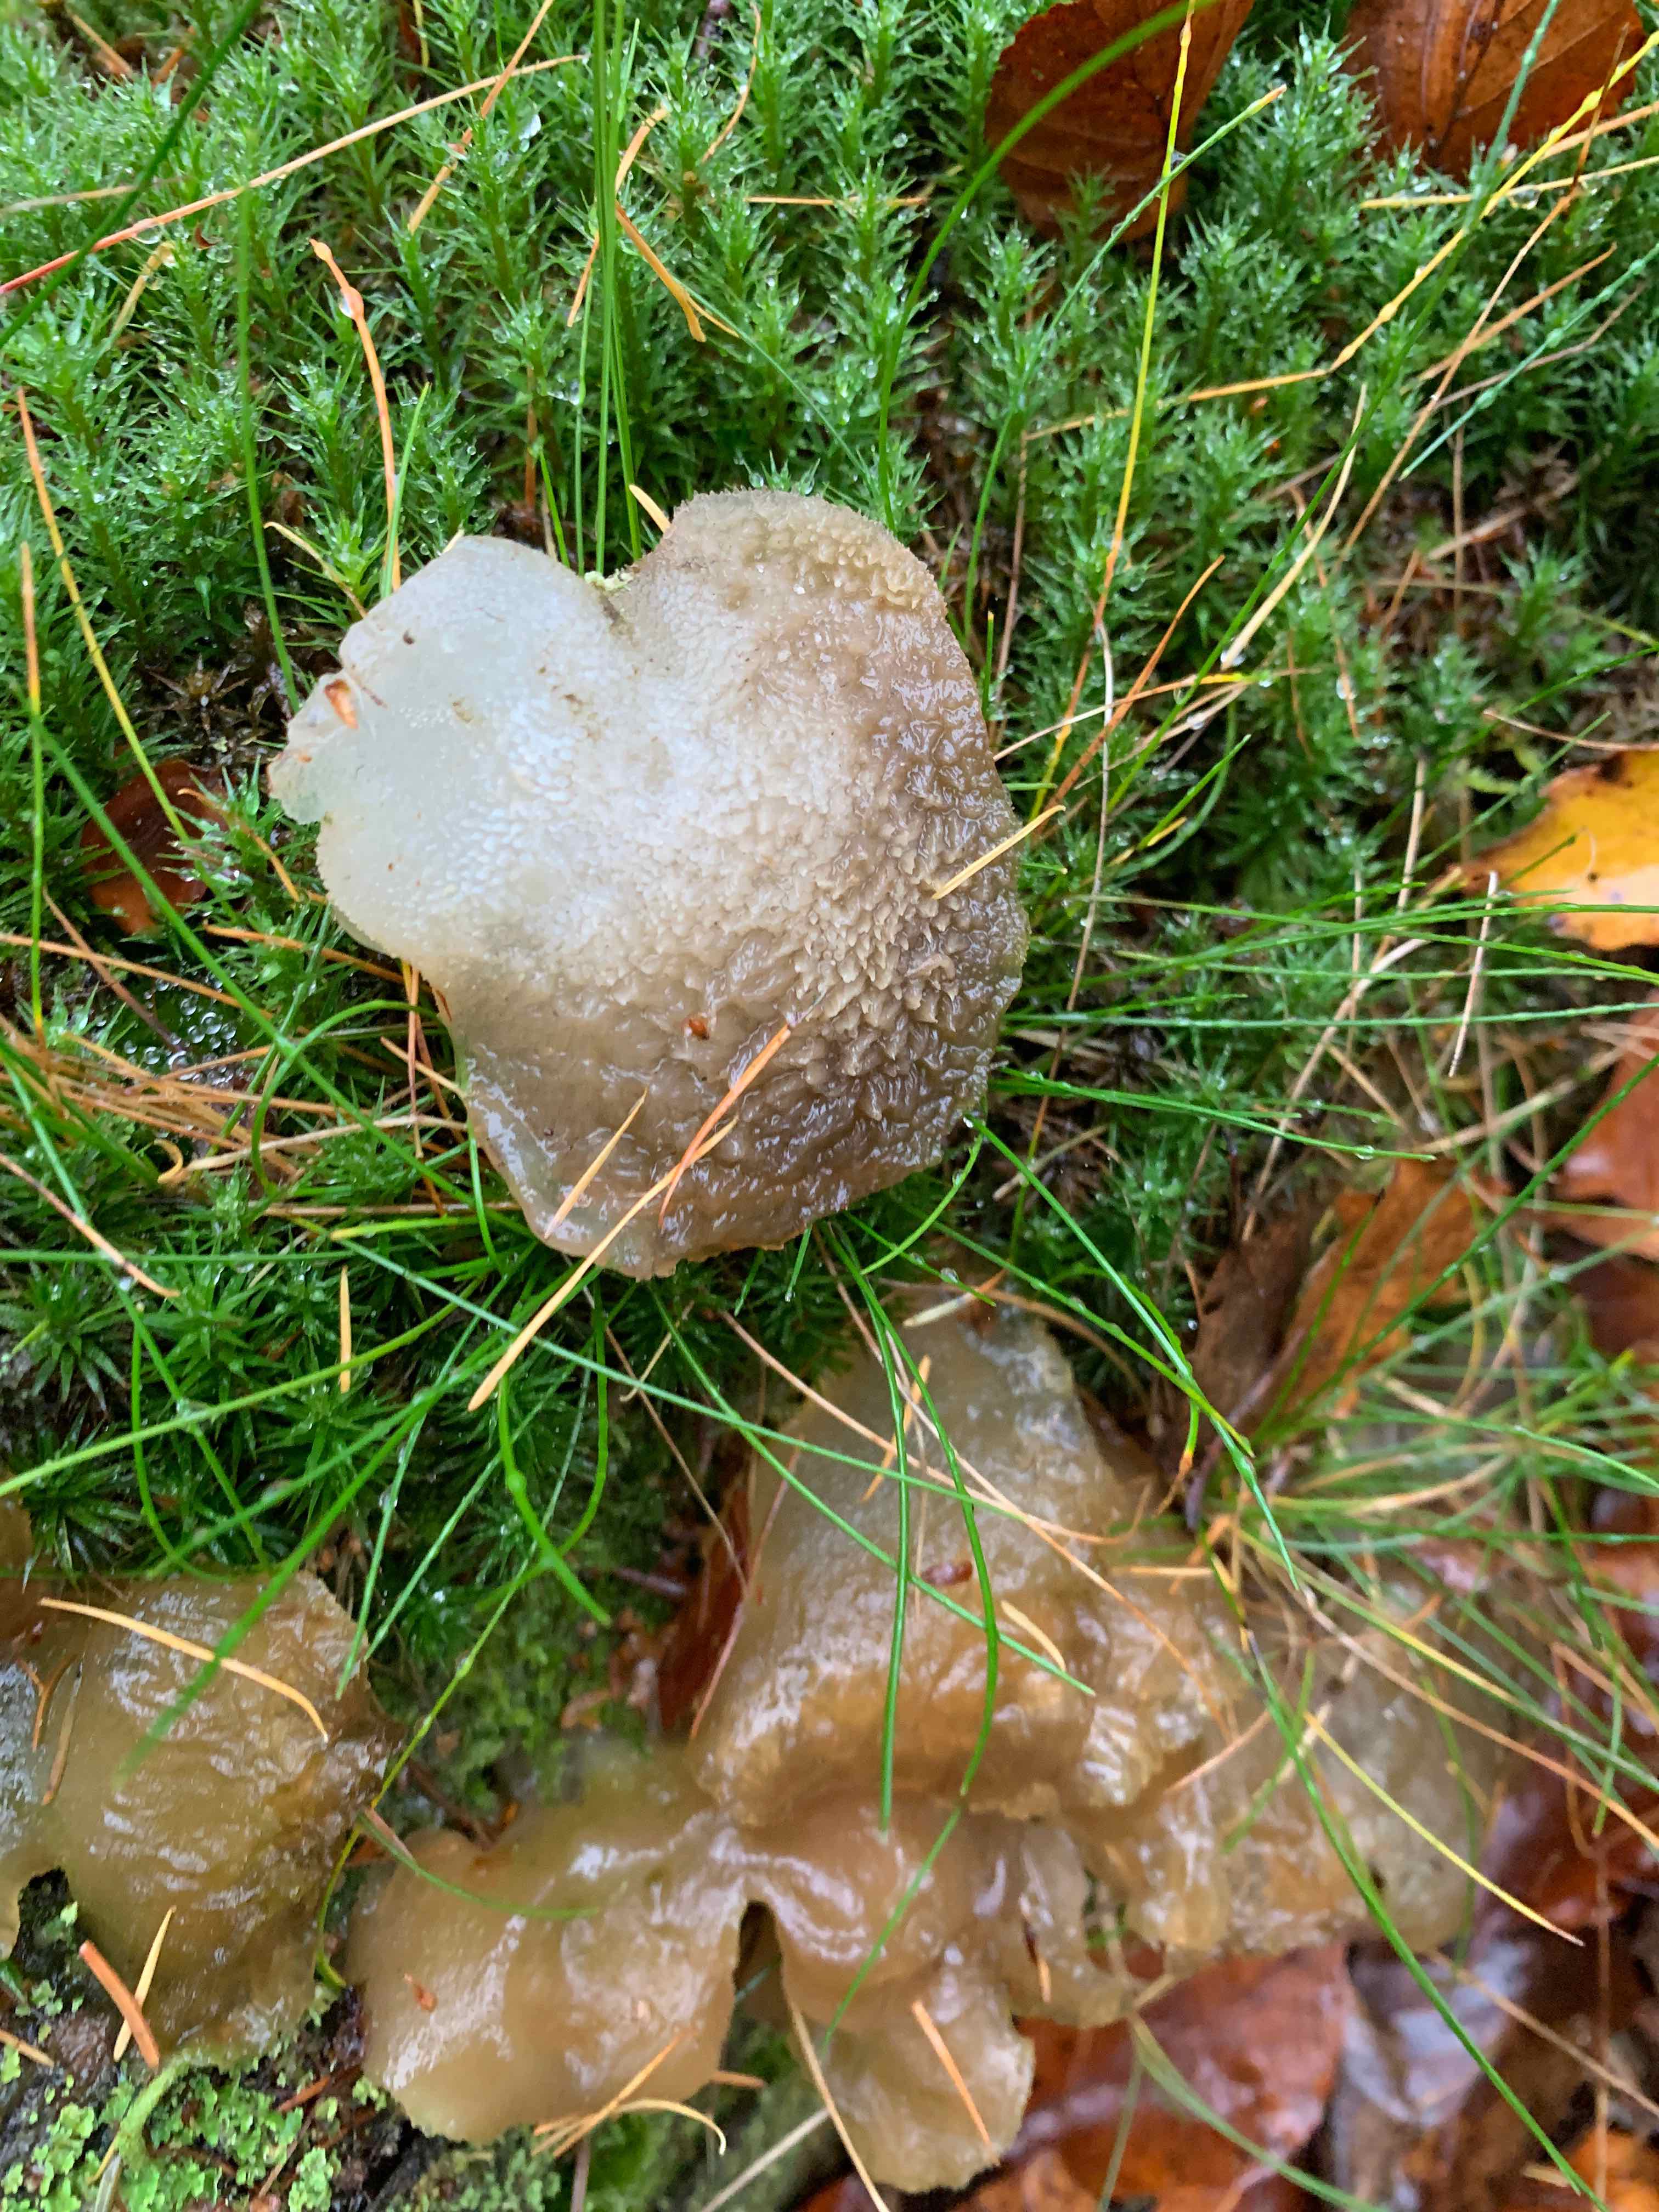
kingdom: Fungi
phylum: Basidiomycota
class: Agaricomycetes
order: Auriculariales
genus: Pseudohydnum
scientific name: Pseudohydnum gelatinosum
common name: bævretand
